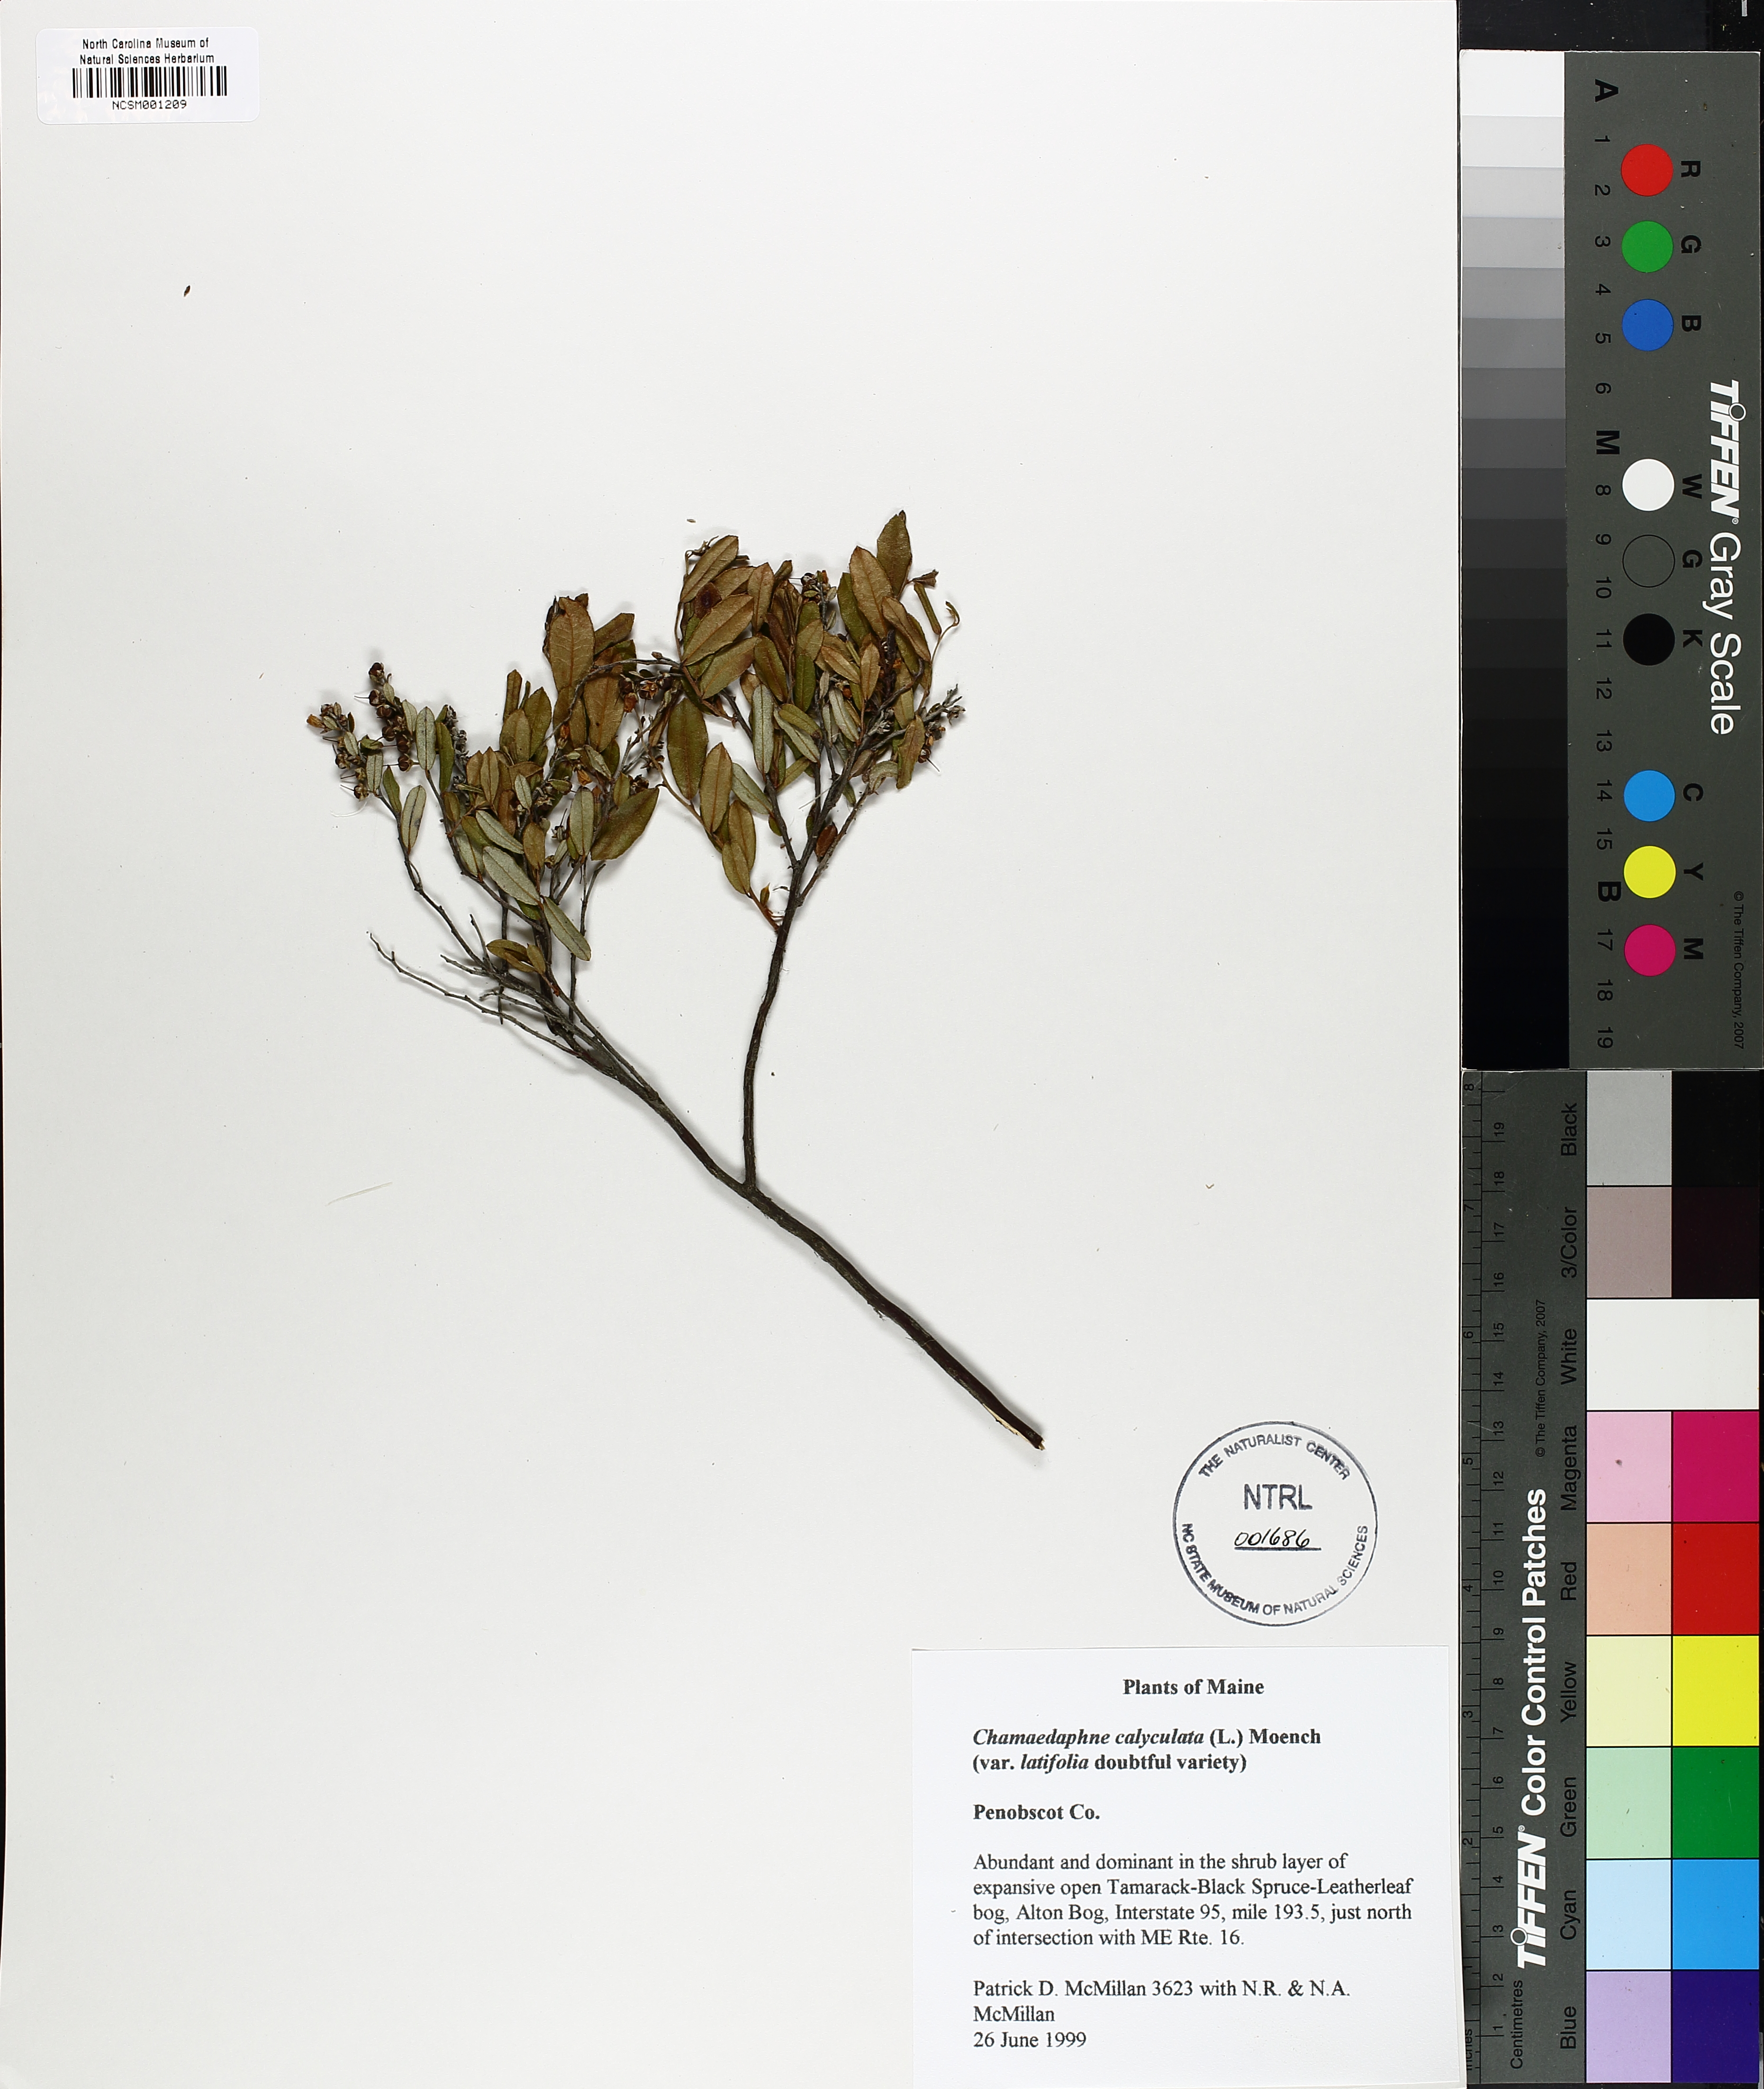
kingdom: Plantae
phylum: Tracheophyta
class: Magnoliopsida
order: Ericales
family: Ericaceae
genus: Chamaedaphne
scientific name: Chamaedaphne calyculata
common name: Leatherleaf
